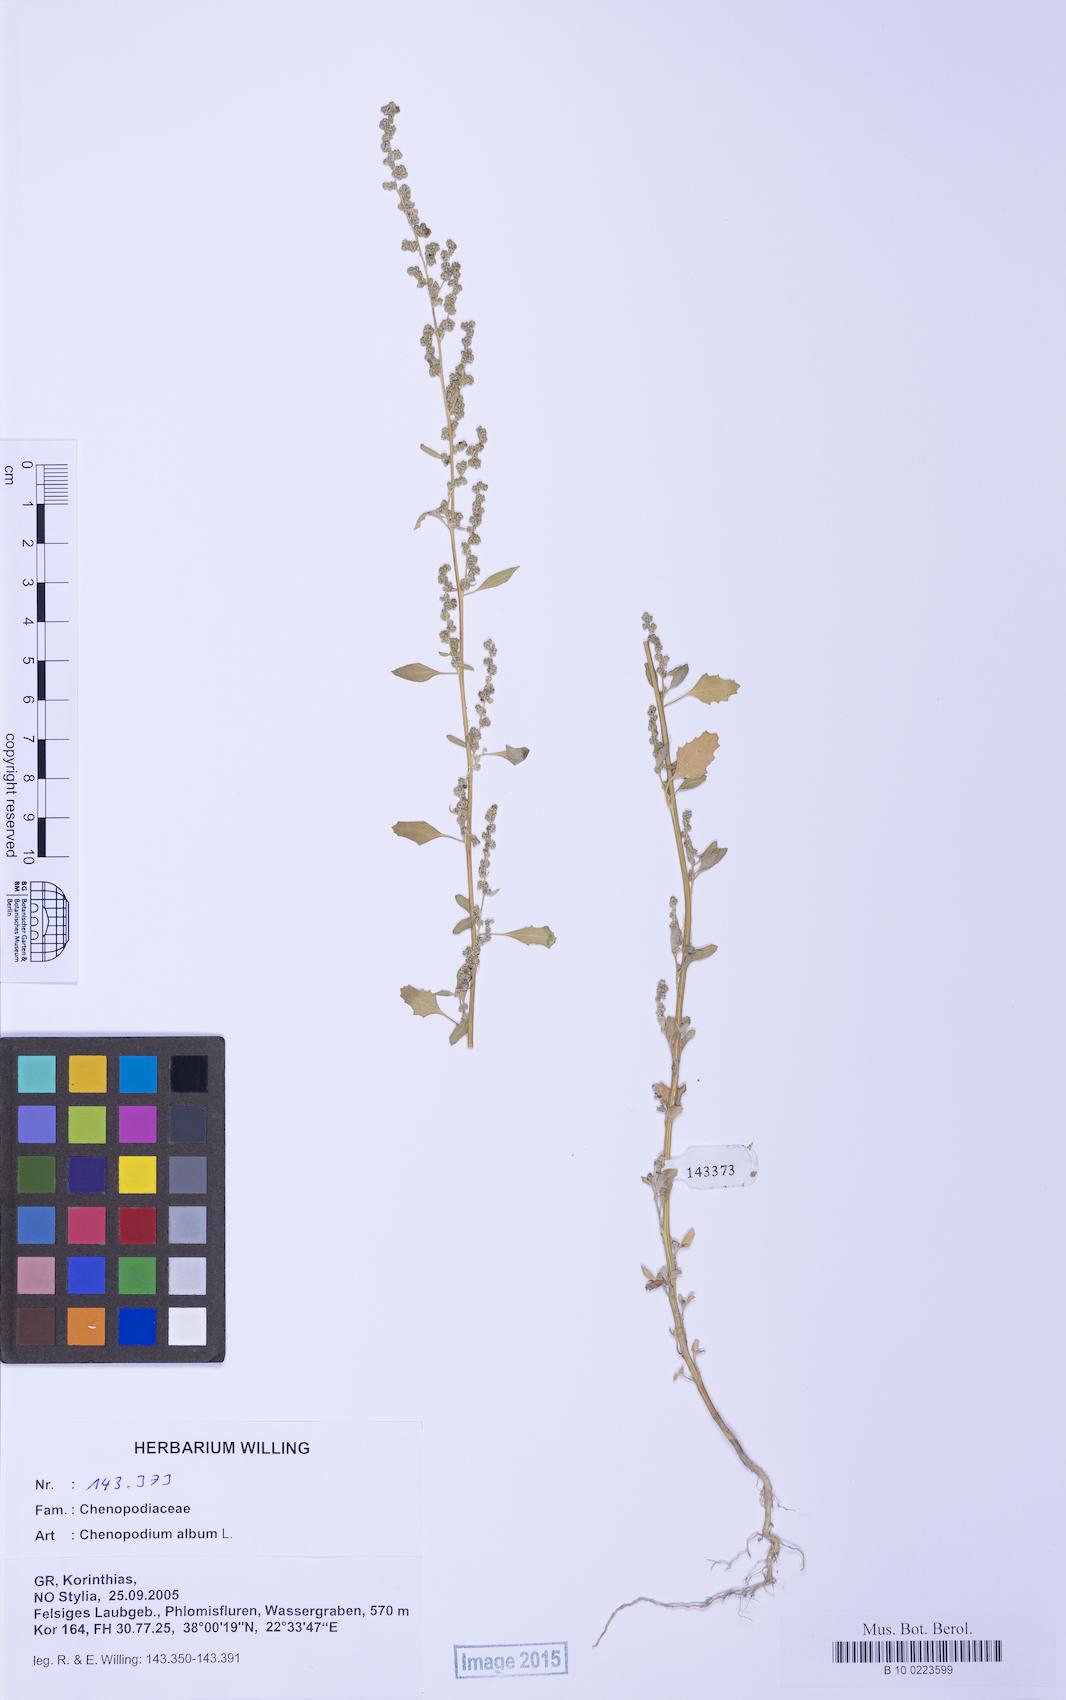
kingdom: Plantae
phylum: Tracheophyta
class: Magnoliopsida
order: Caryophyllales
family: Amaranthaceae
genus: Chenopodium
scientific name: Chenopodium album
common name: Fat-hen
